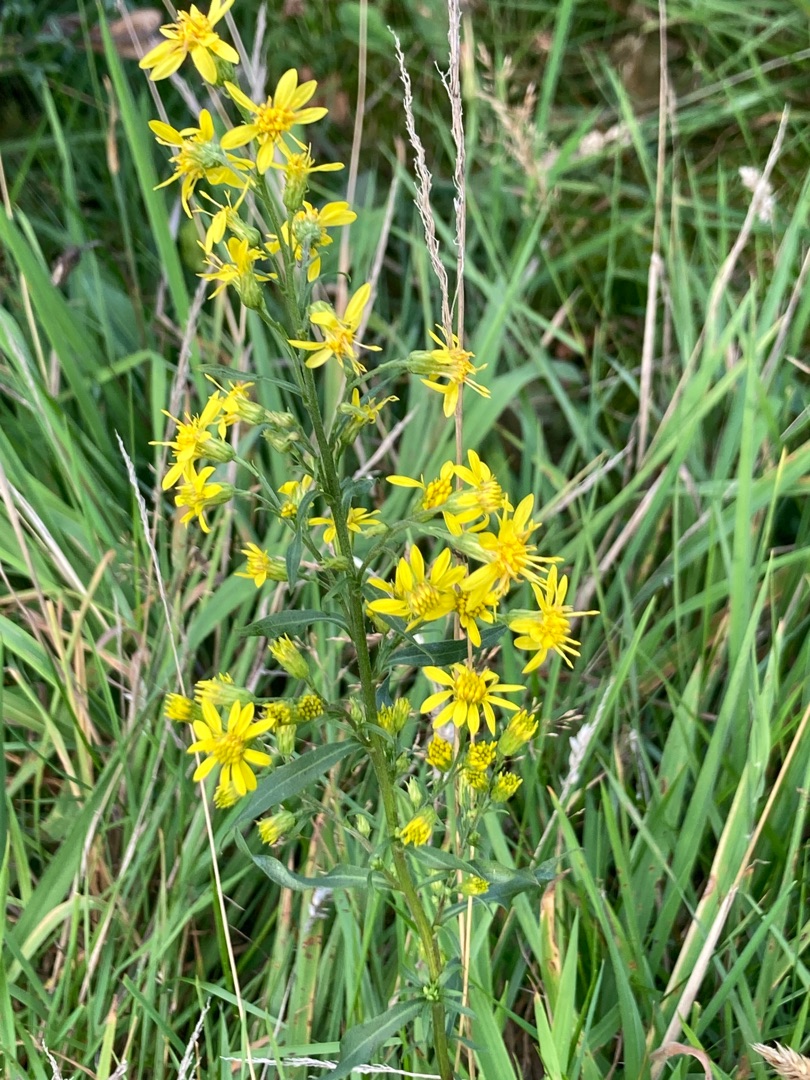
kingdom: Plantae
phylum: Tracheophyta
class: Magnoliopsida
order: Asterales
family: Asteraceae
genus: Solidago
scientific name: Solidago virgaurea
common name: Almindelig gyldenris
